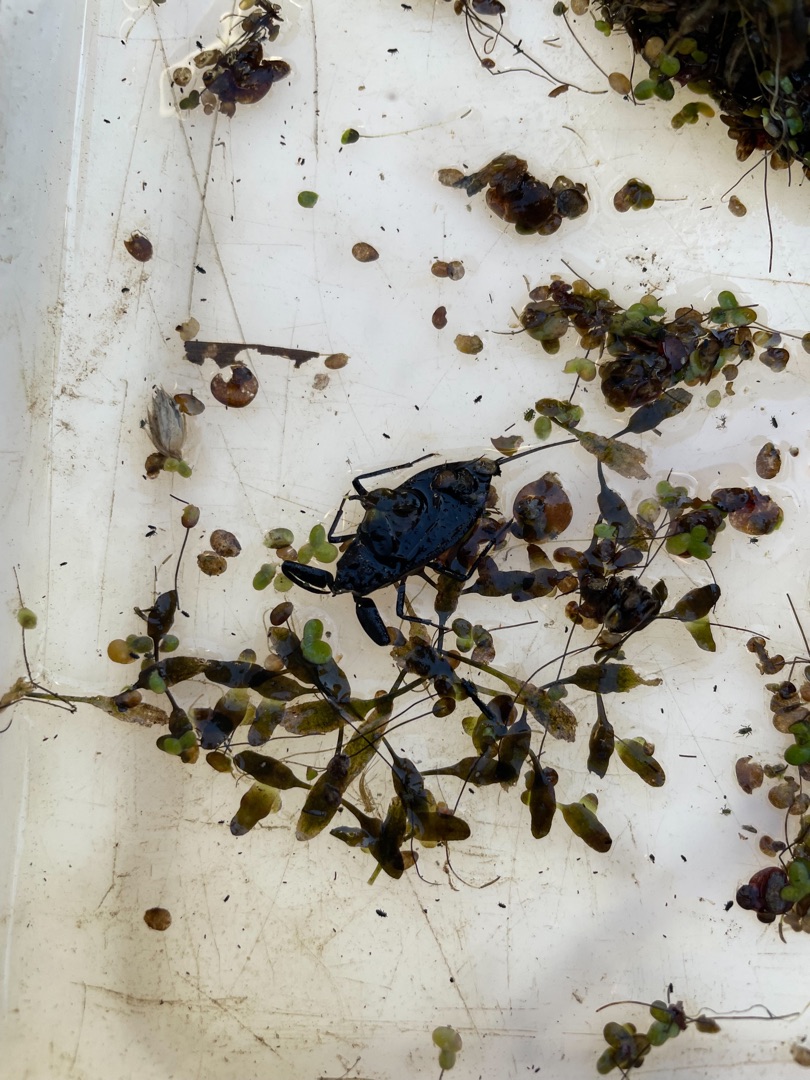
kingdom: Animalia
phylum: Arthropoda
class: Insecta
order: Hemiptera
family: Nepidae
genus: Nepa
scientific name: Nepa cinerea
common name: Skorpiontæge
